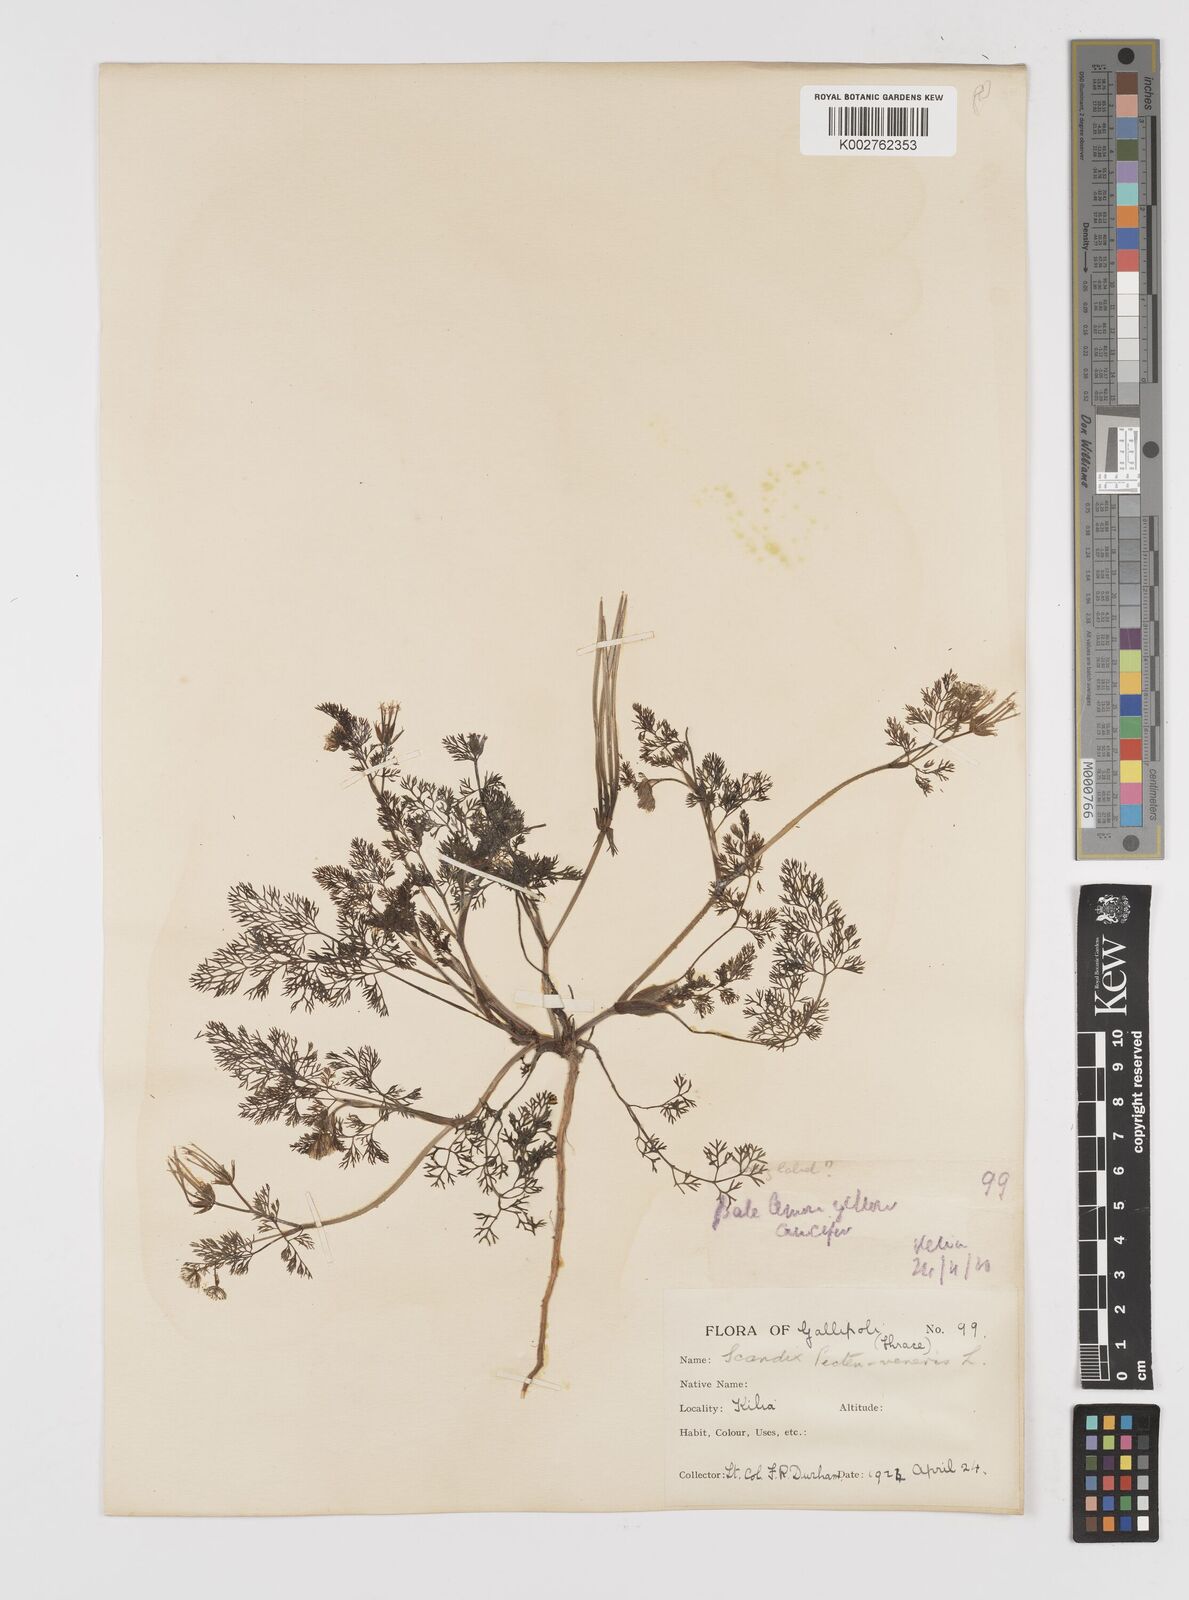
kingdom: Plantae
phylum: Tracheophyta
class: Magnoliopsida
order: Apiales
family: Apiaceae
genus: Scandix
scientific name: Scandix pecten-veneris
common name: Shepherd's-needle
